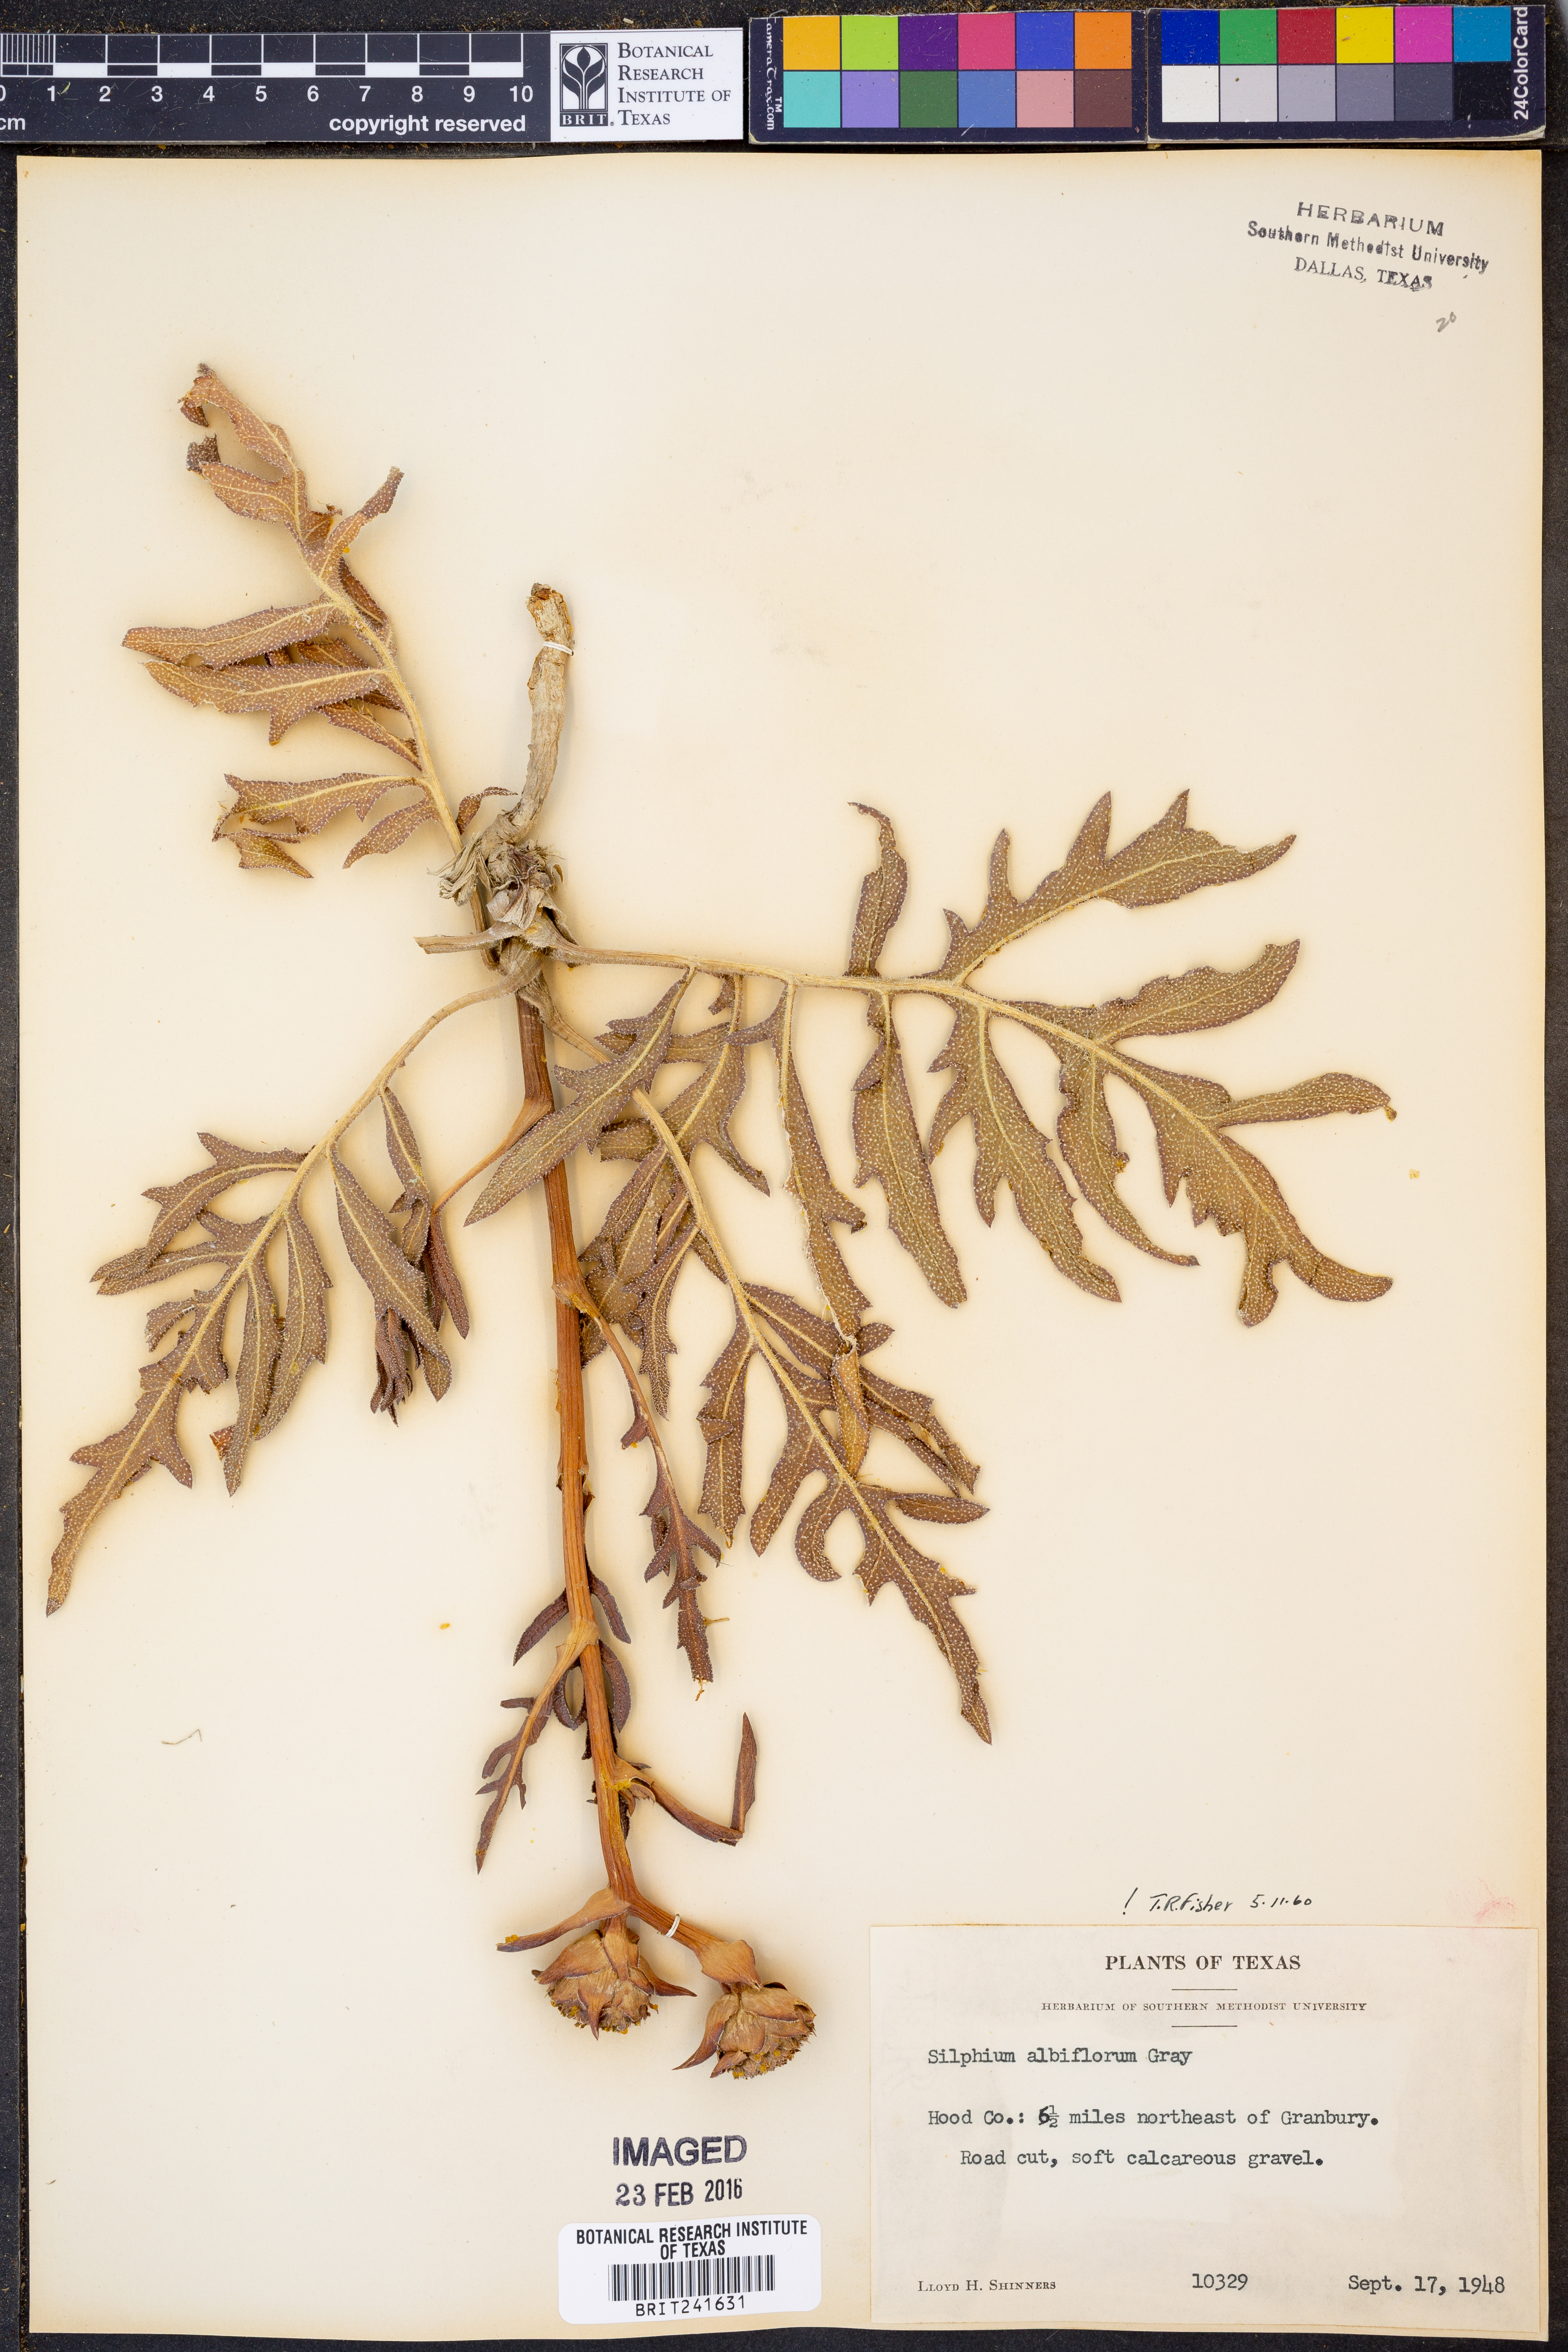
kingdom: Plantae
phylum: Tracheophyta
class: Magnoliopsida
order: Asterales
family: Asteraceae
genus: Silphium
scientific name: Silphium albiflorum
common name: White rosinweed
